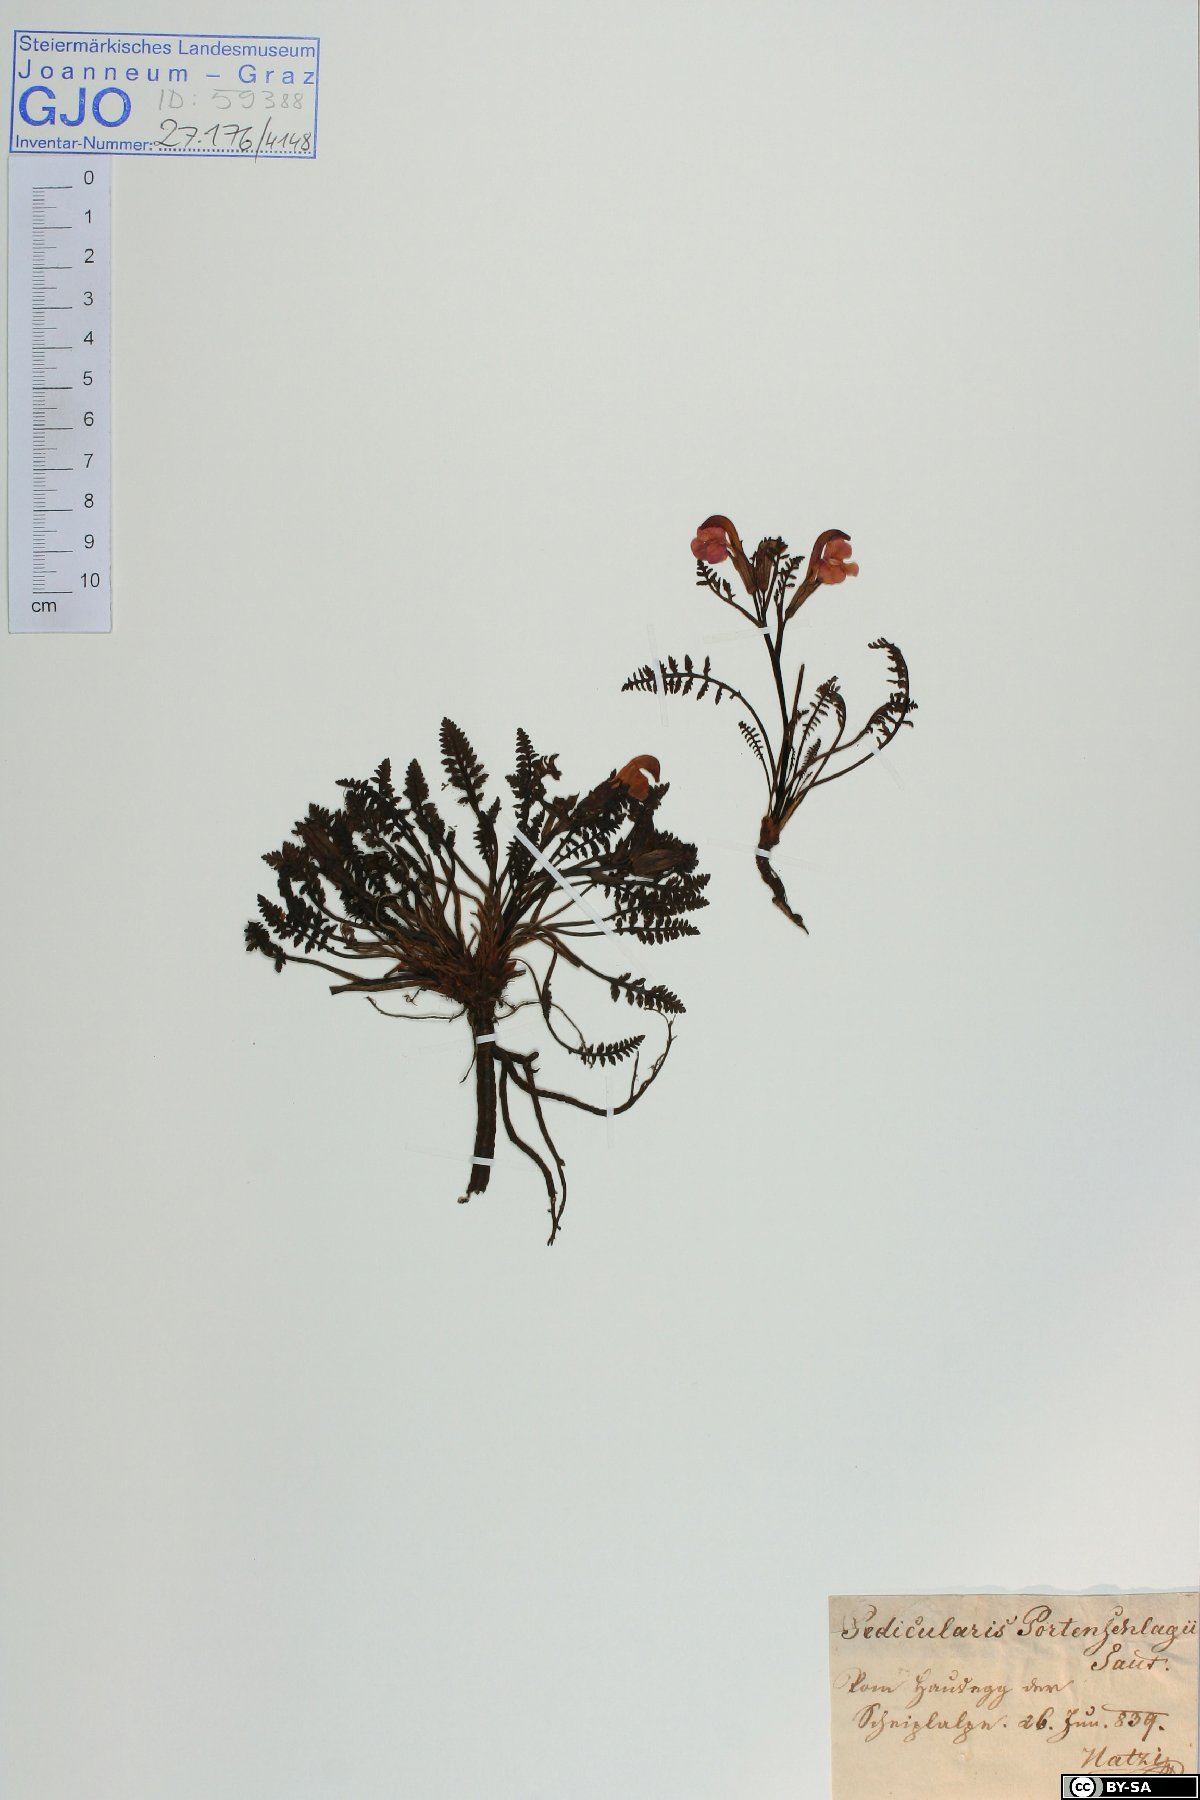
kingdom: Plantae
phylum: Tracheophyta
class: Magnoliopsida
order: Lamiales
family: Orobanchaceae
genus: Pedicularis
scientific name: Pedicularis portenschlagii
